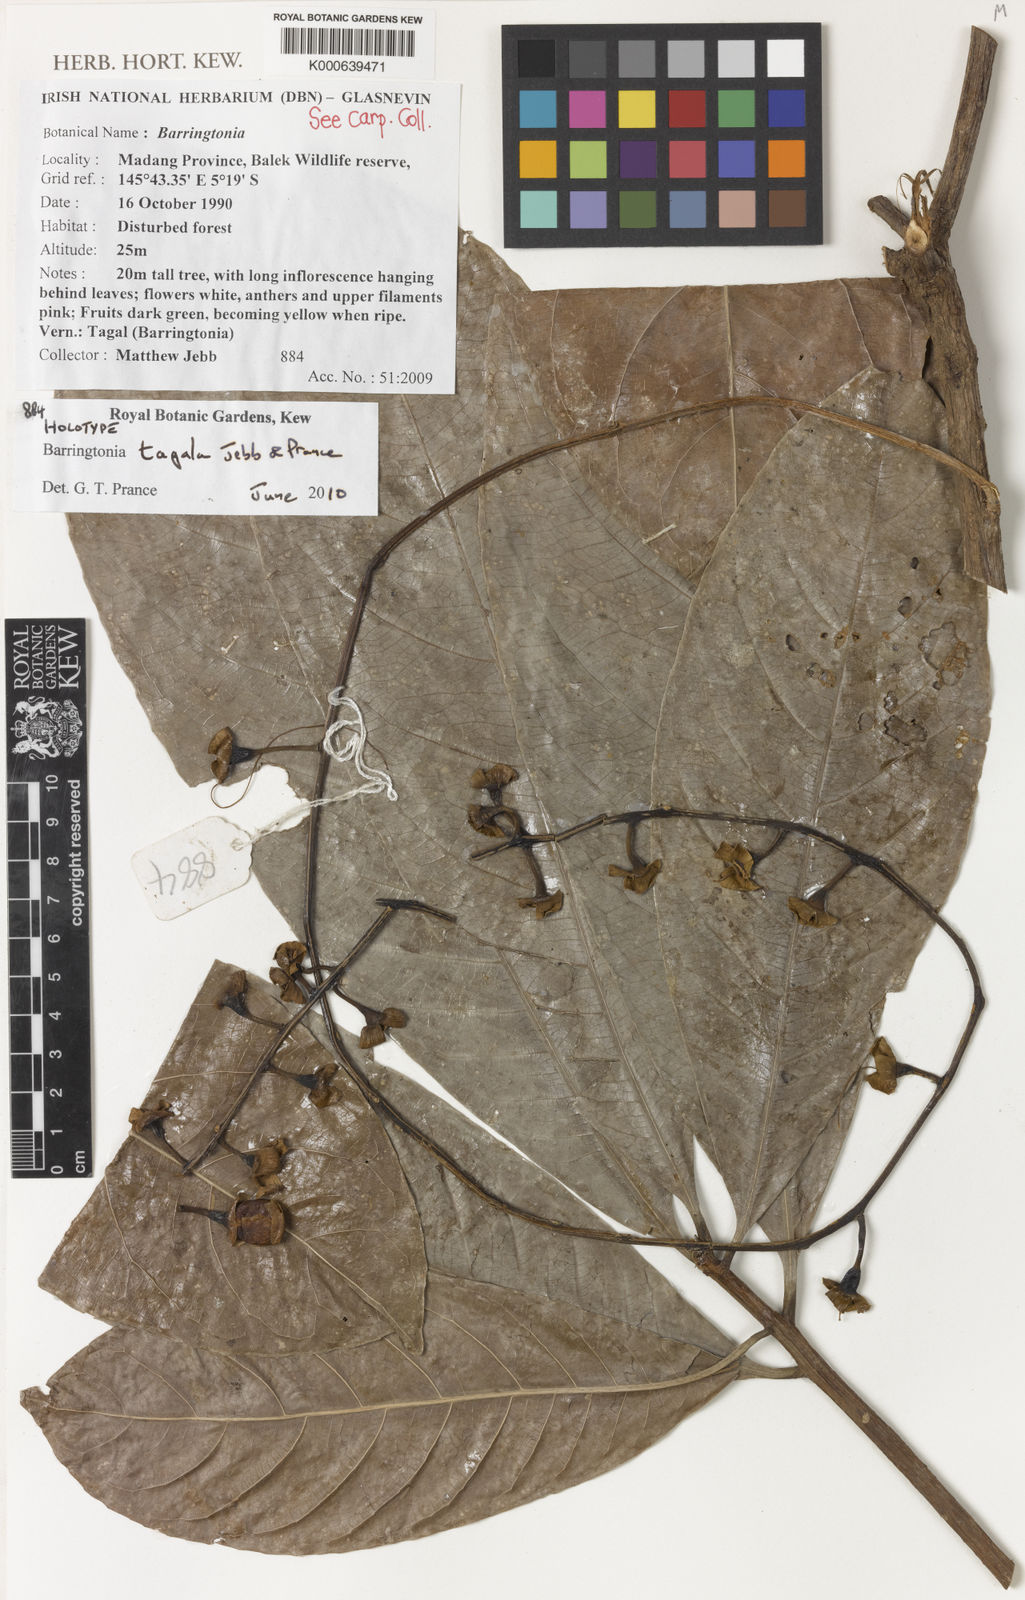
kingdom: Plantae
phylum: Tracheophyta
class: Magnoliopsida
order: Ericales
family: Lecythidaceae
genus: Barringtonia
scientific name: Barringtonia tagala
